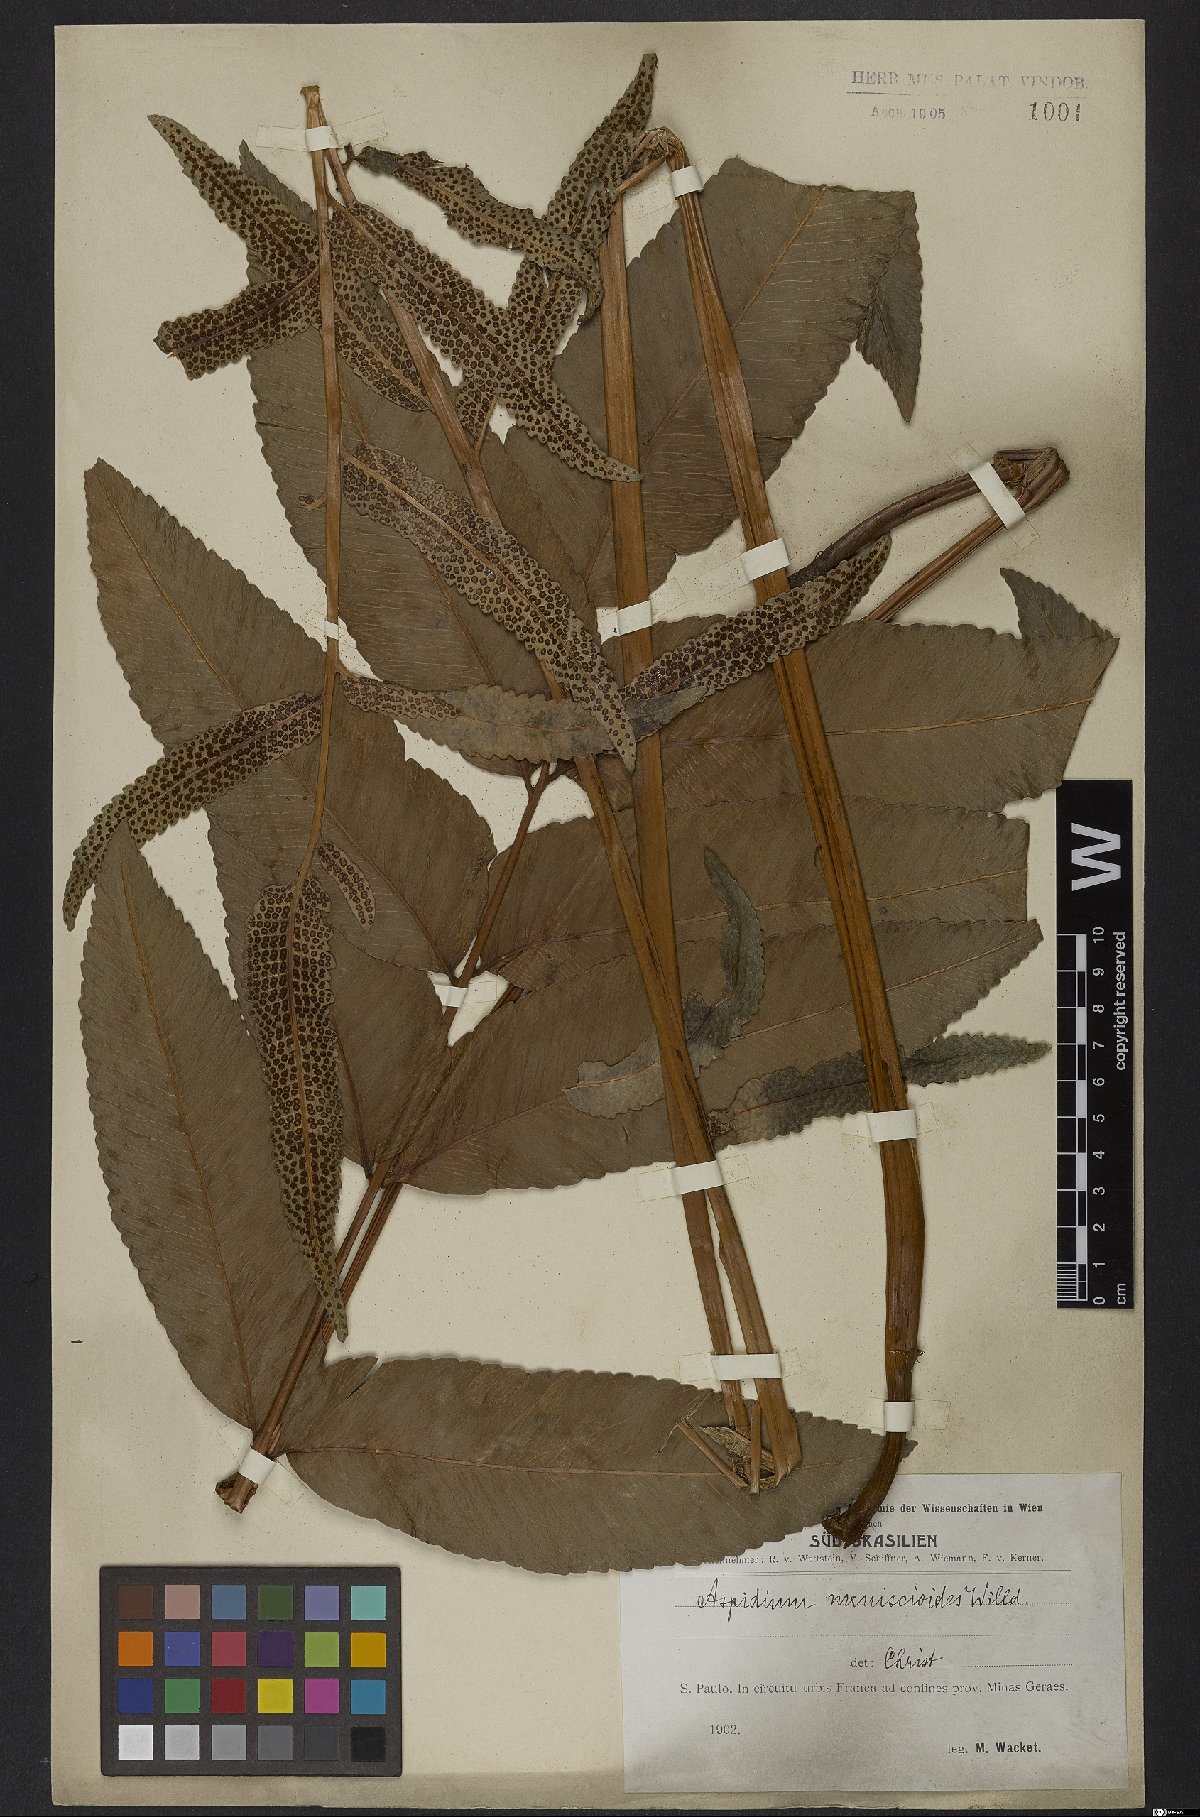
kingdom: Plantae
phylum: Tracheophyta
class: Polypodiopsida
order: Polypodiales
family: Dryopteridaceae
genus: Cyclodium
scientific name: Cyclodium meniscioides
